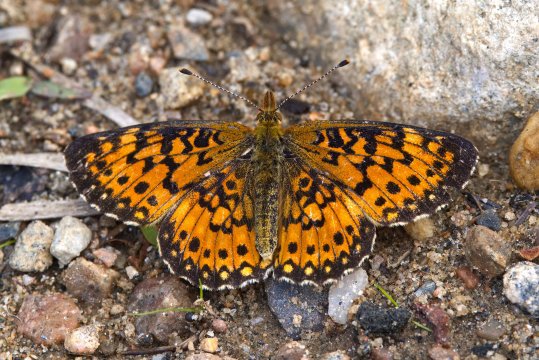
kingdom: Animalia
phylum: Arthropoda
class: Insecta
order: Lepidoptera
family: Nymphalidae
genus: Boloria
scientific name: Boloria selene
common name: Silver-bordered Fritillary
